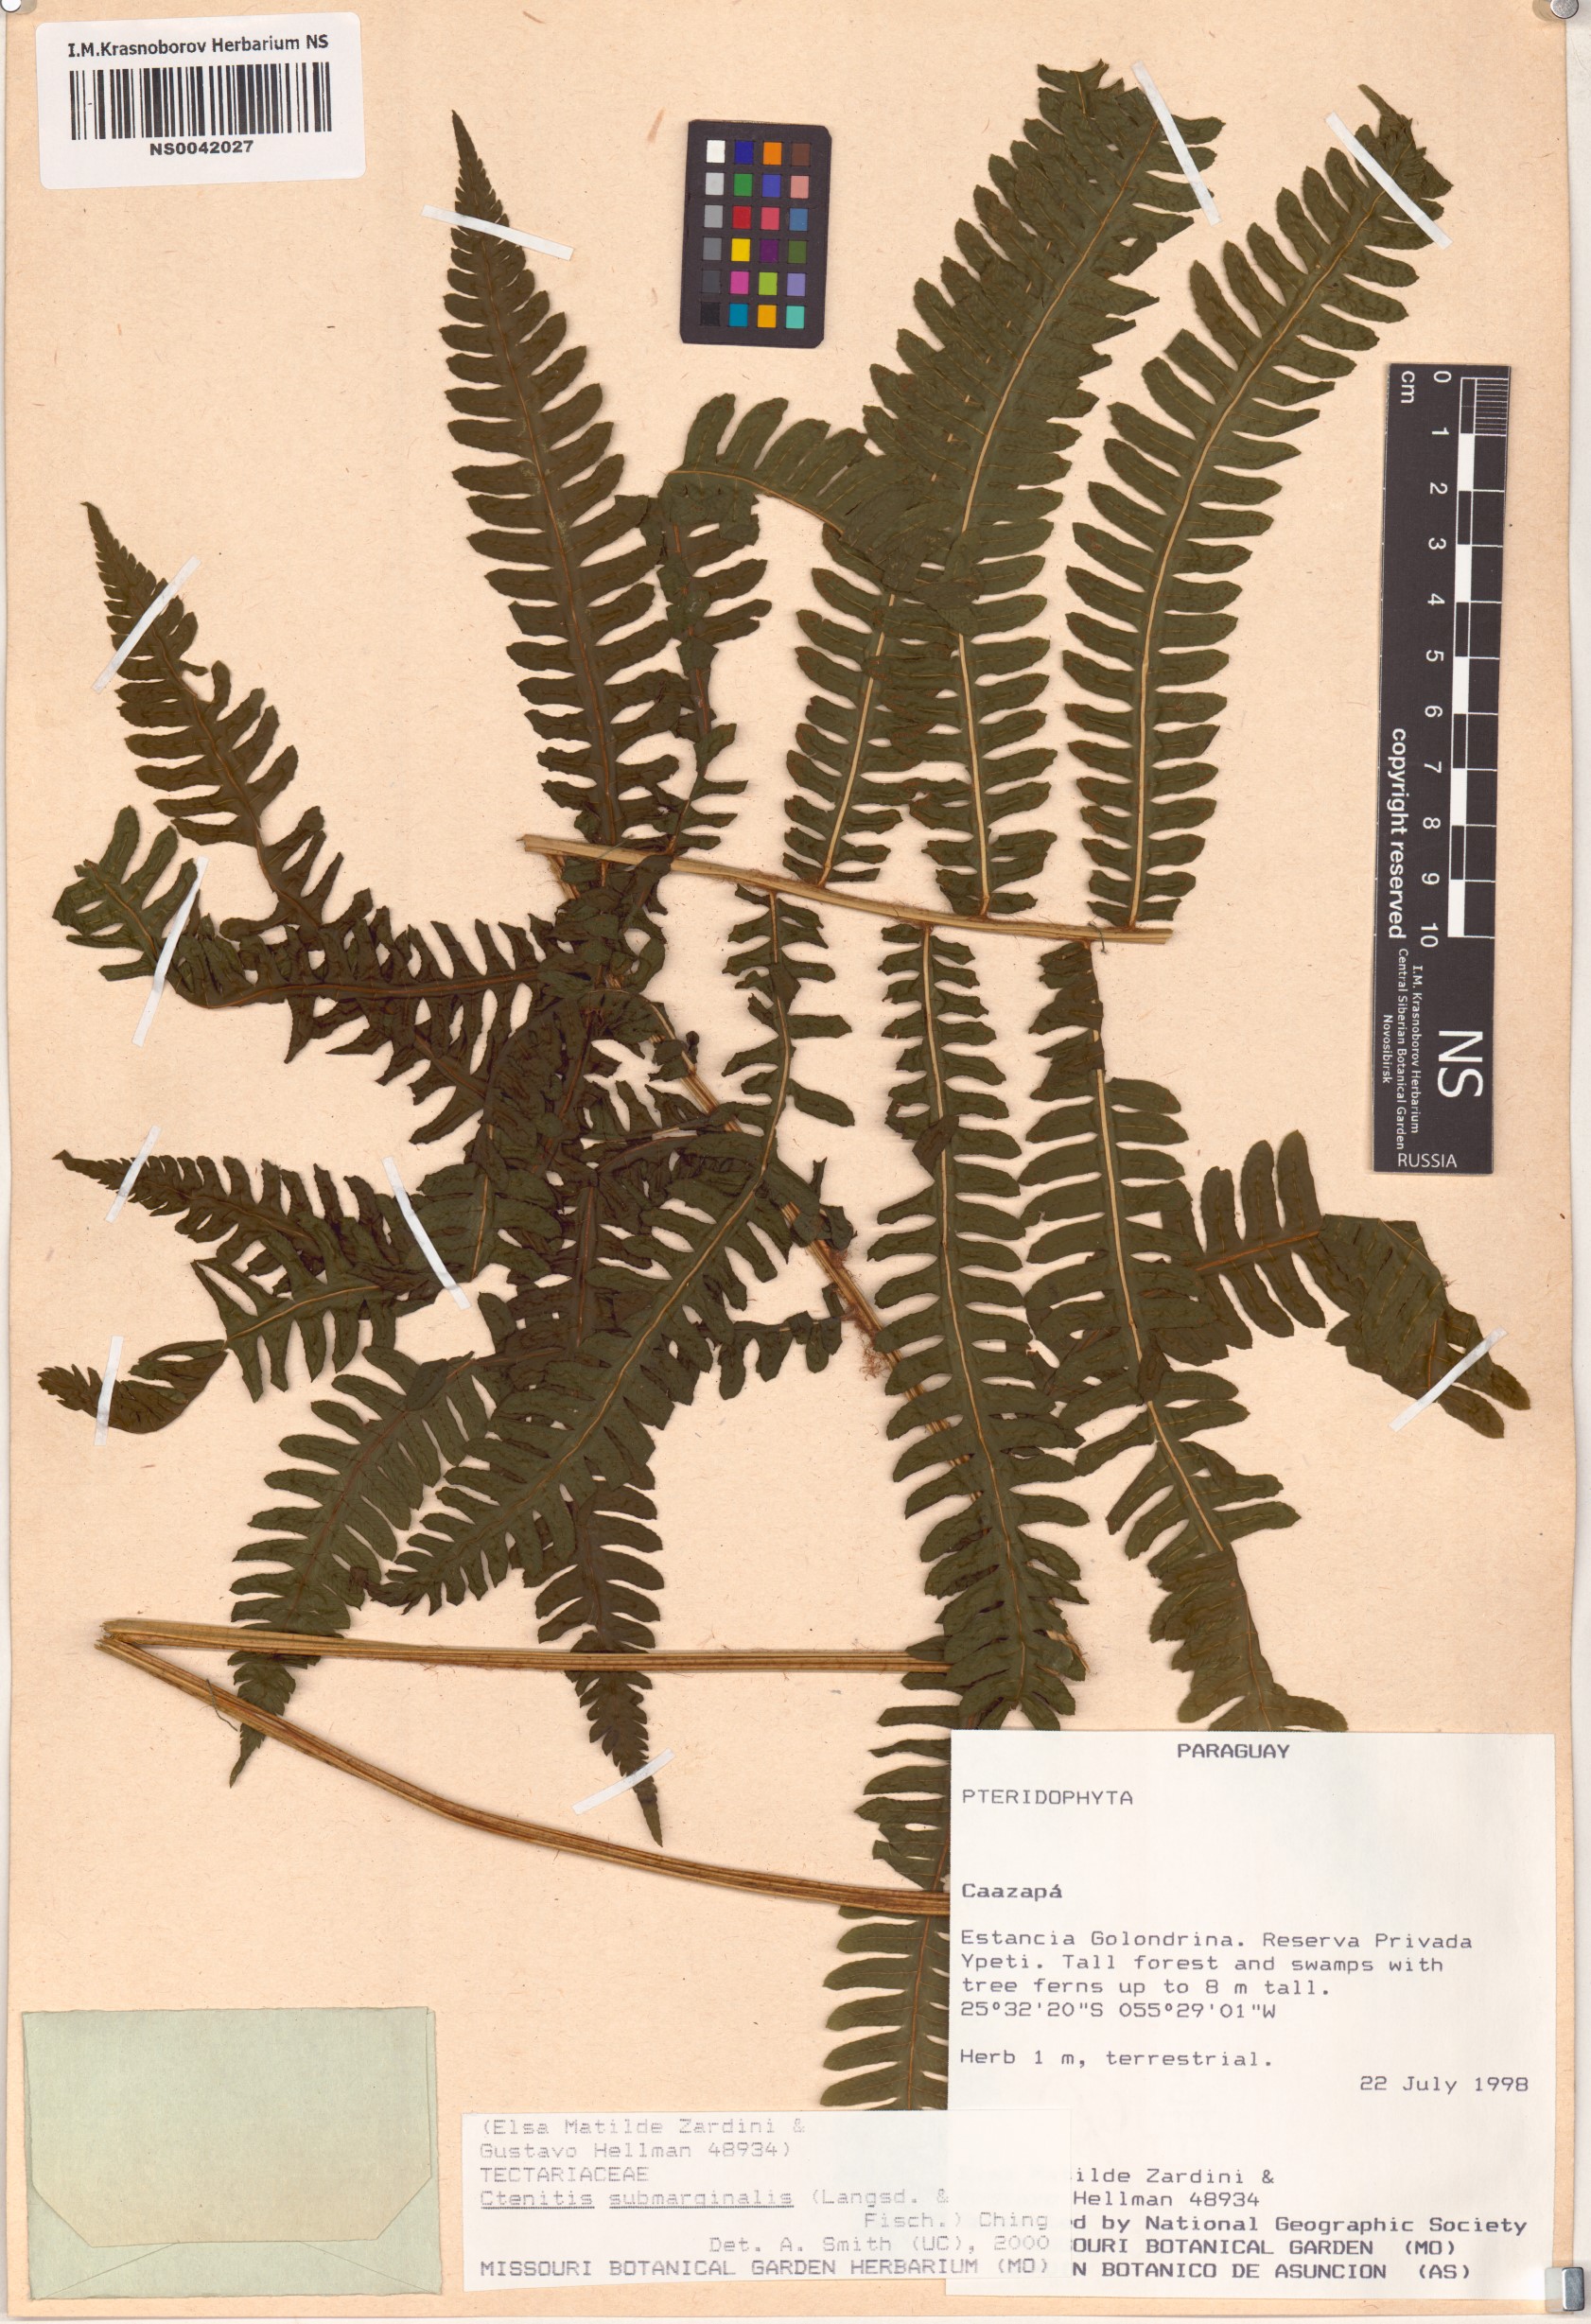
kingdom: Plantae
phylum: Tracheophyta
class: Polypodiopsida
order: Polypodiales
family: Dryopteridaceae
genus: Ctenitis
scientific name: Ctenitis submarginalis
